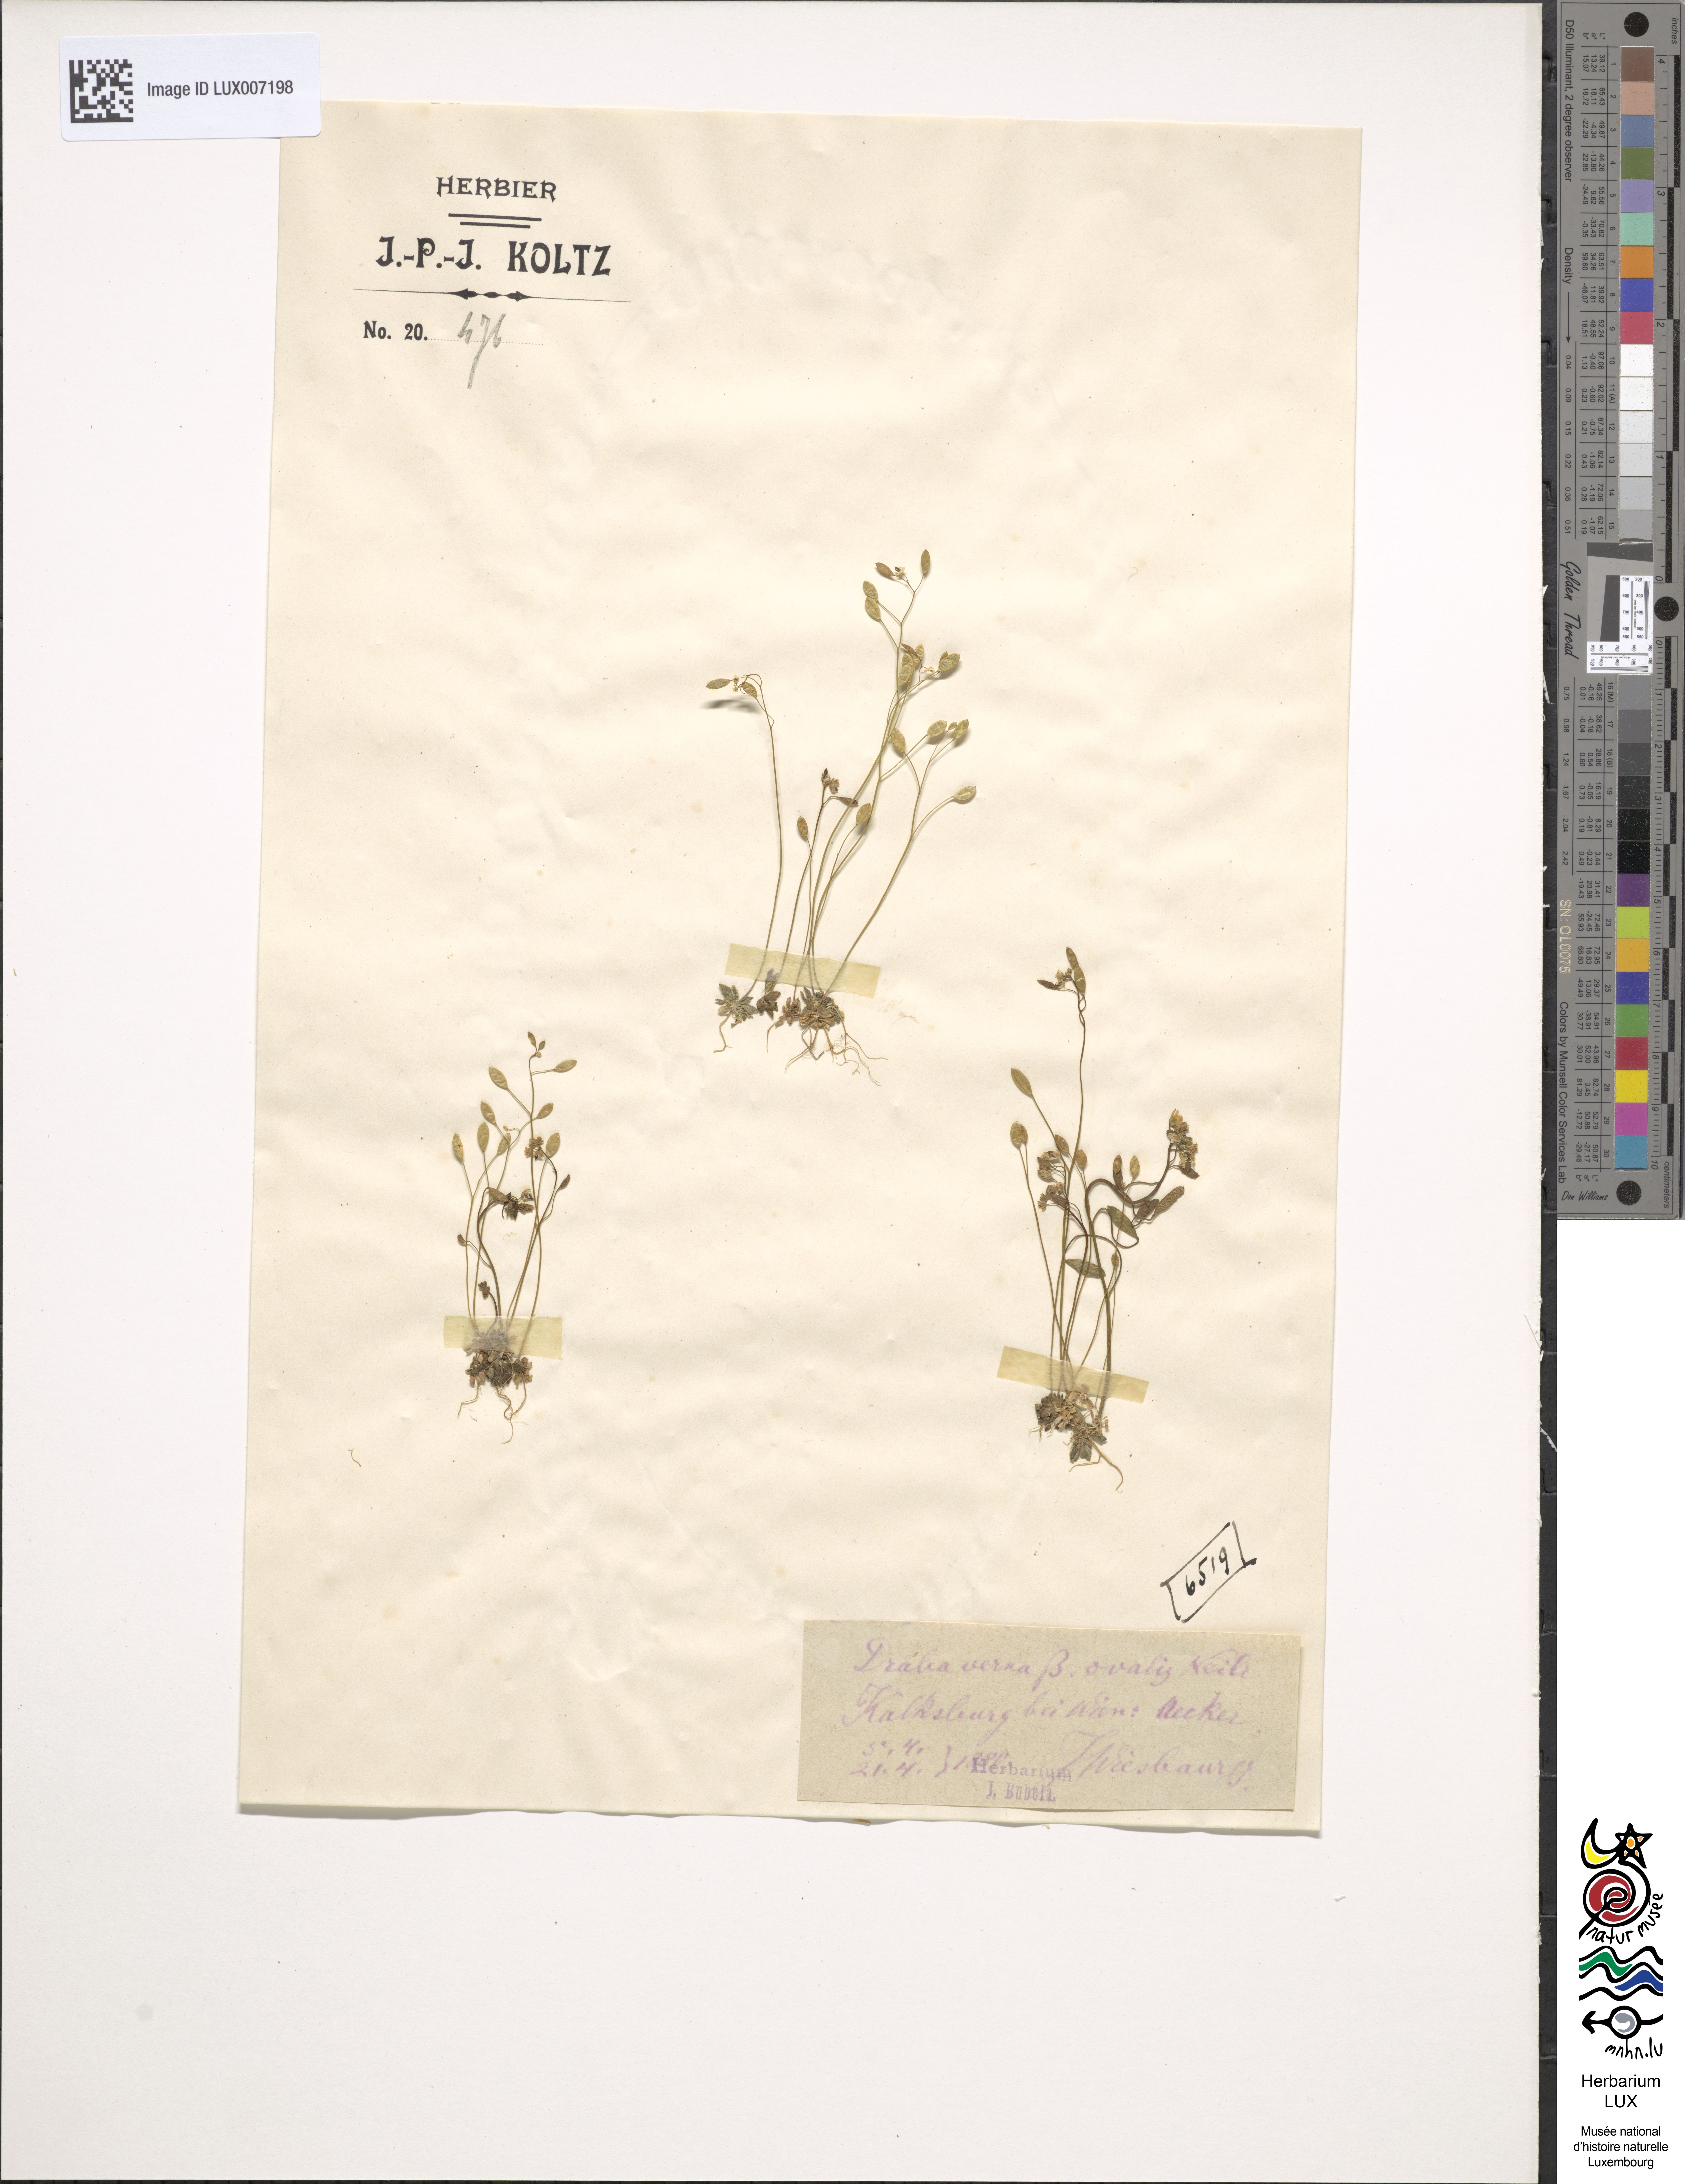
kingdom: Plantae
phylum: Tracheophyta
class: Magnoliopsida
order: Brassicales
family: Brassicaceae
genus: Draba
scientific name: Draba
